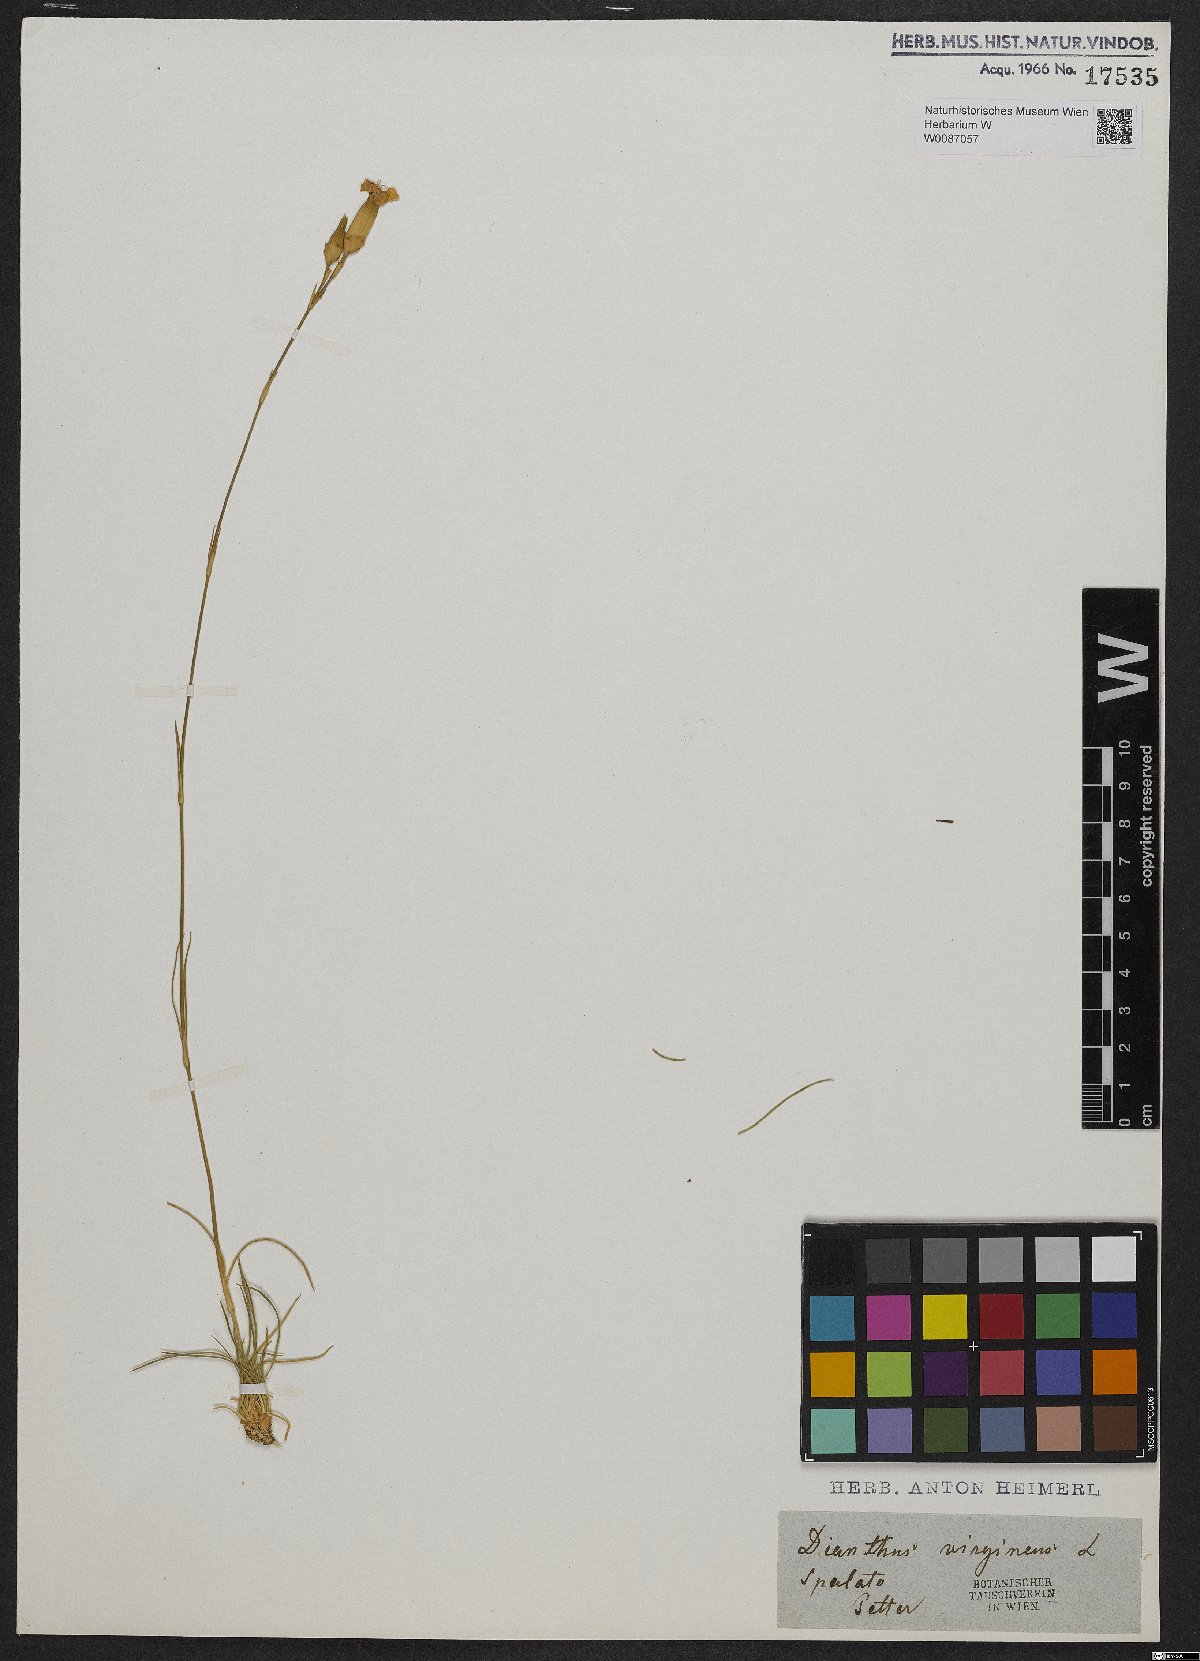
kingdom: Plantae
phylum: Tracheophyta
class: Magnoliopsida
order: Caryophyllales
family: Caryophyllaceae
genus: Dianthus
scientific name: Dianthus virgineus
